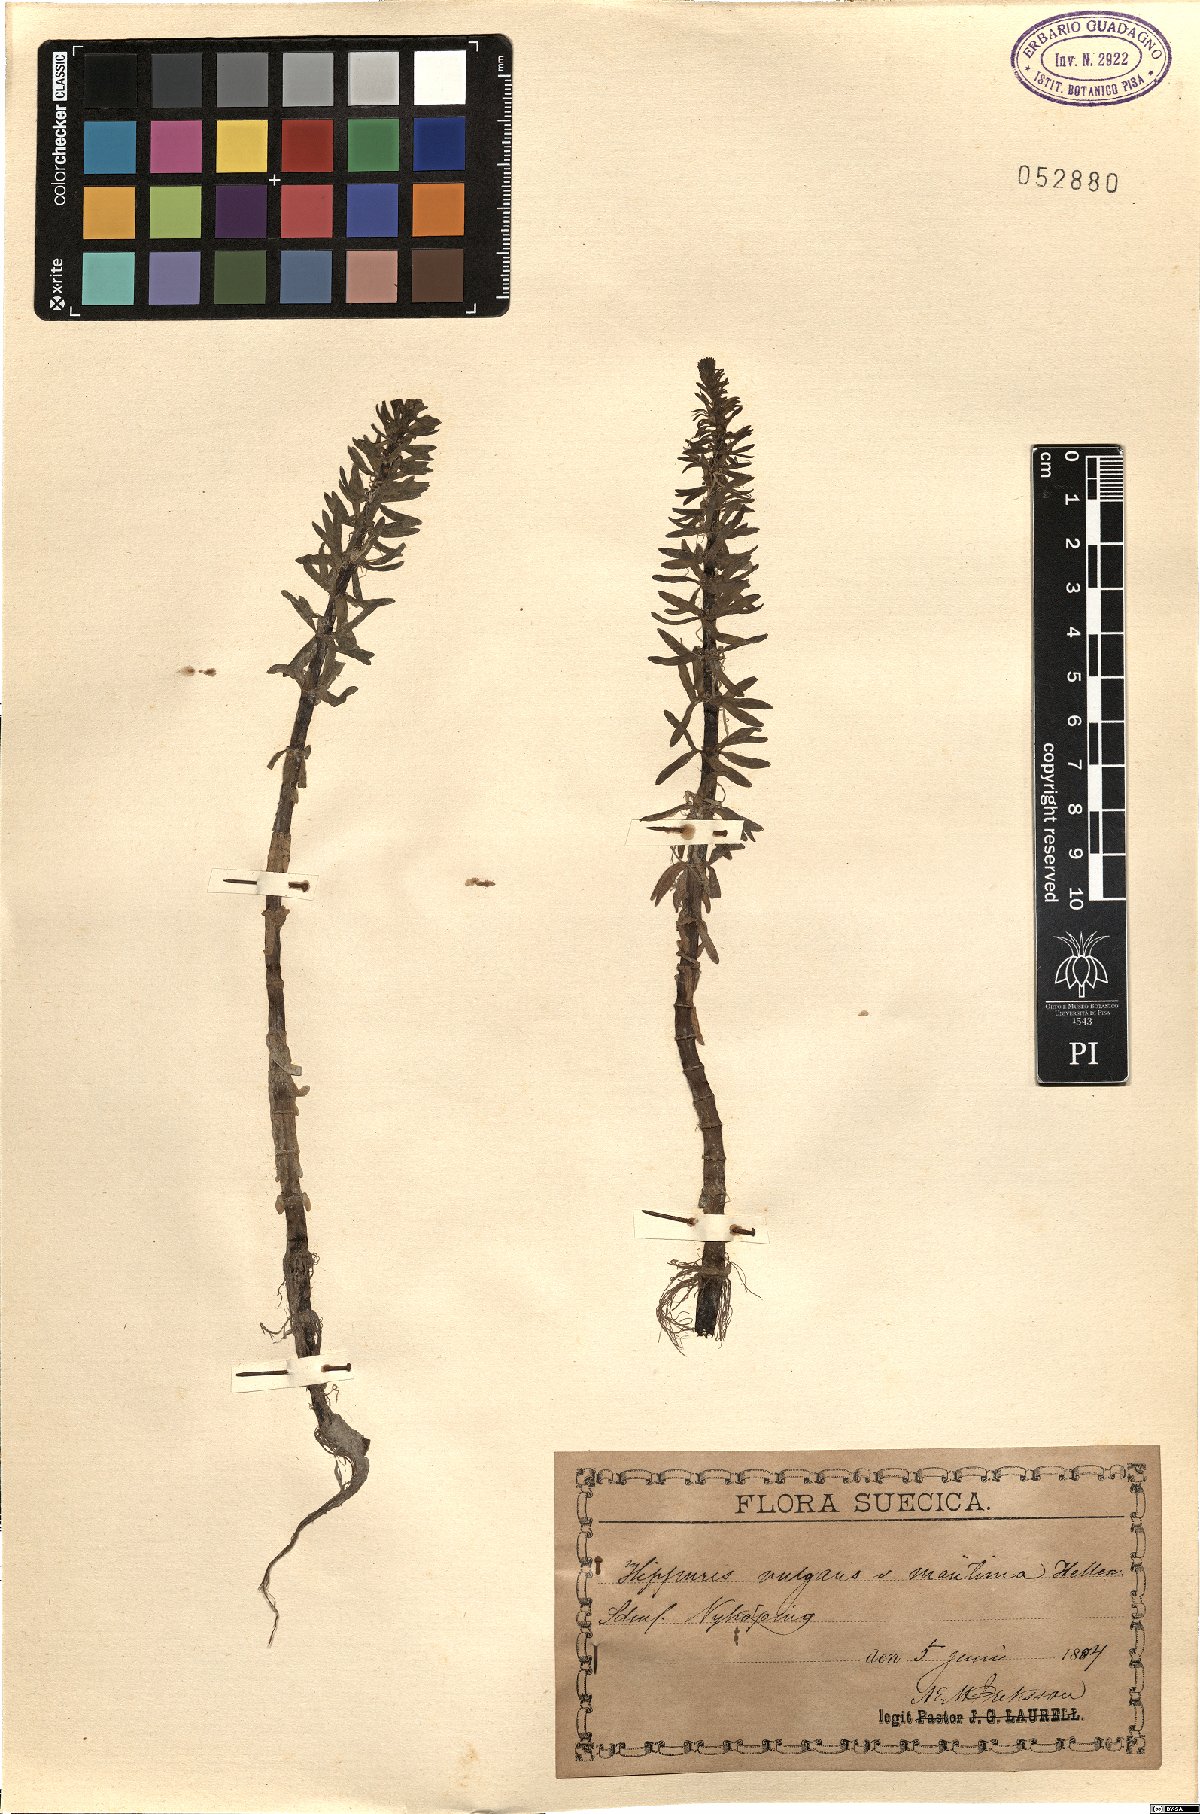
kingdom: Plantae
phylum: Tracheophyta
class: Magnoliopsida
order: Lamiales
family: Plantaginaceae
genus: Hippuris
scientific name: Hippuris vulgaris
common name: Mare's-tail
